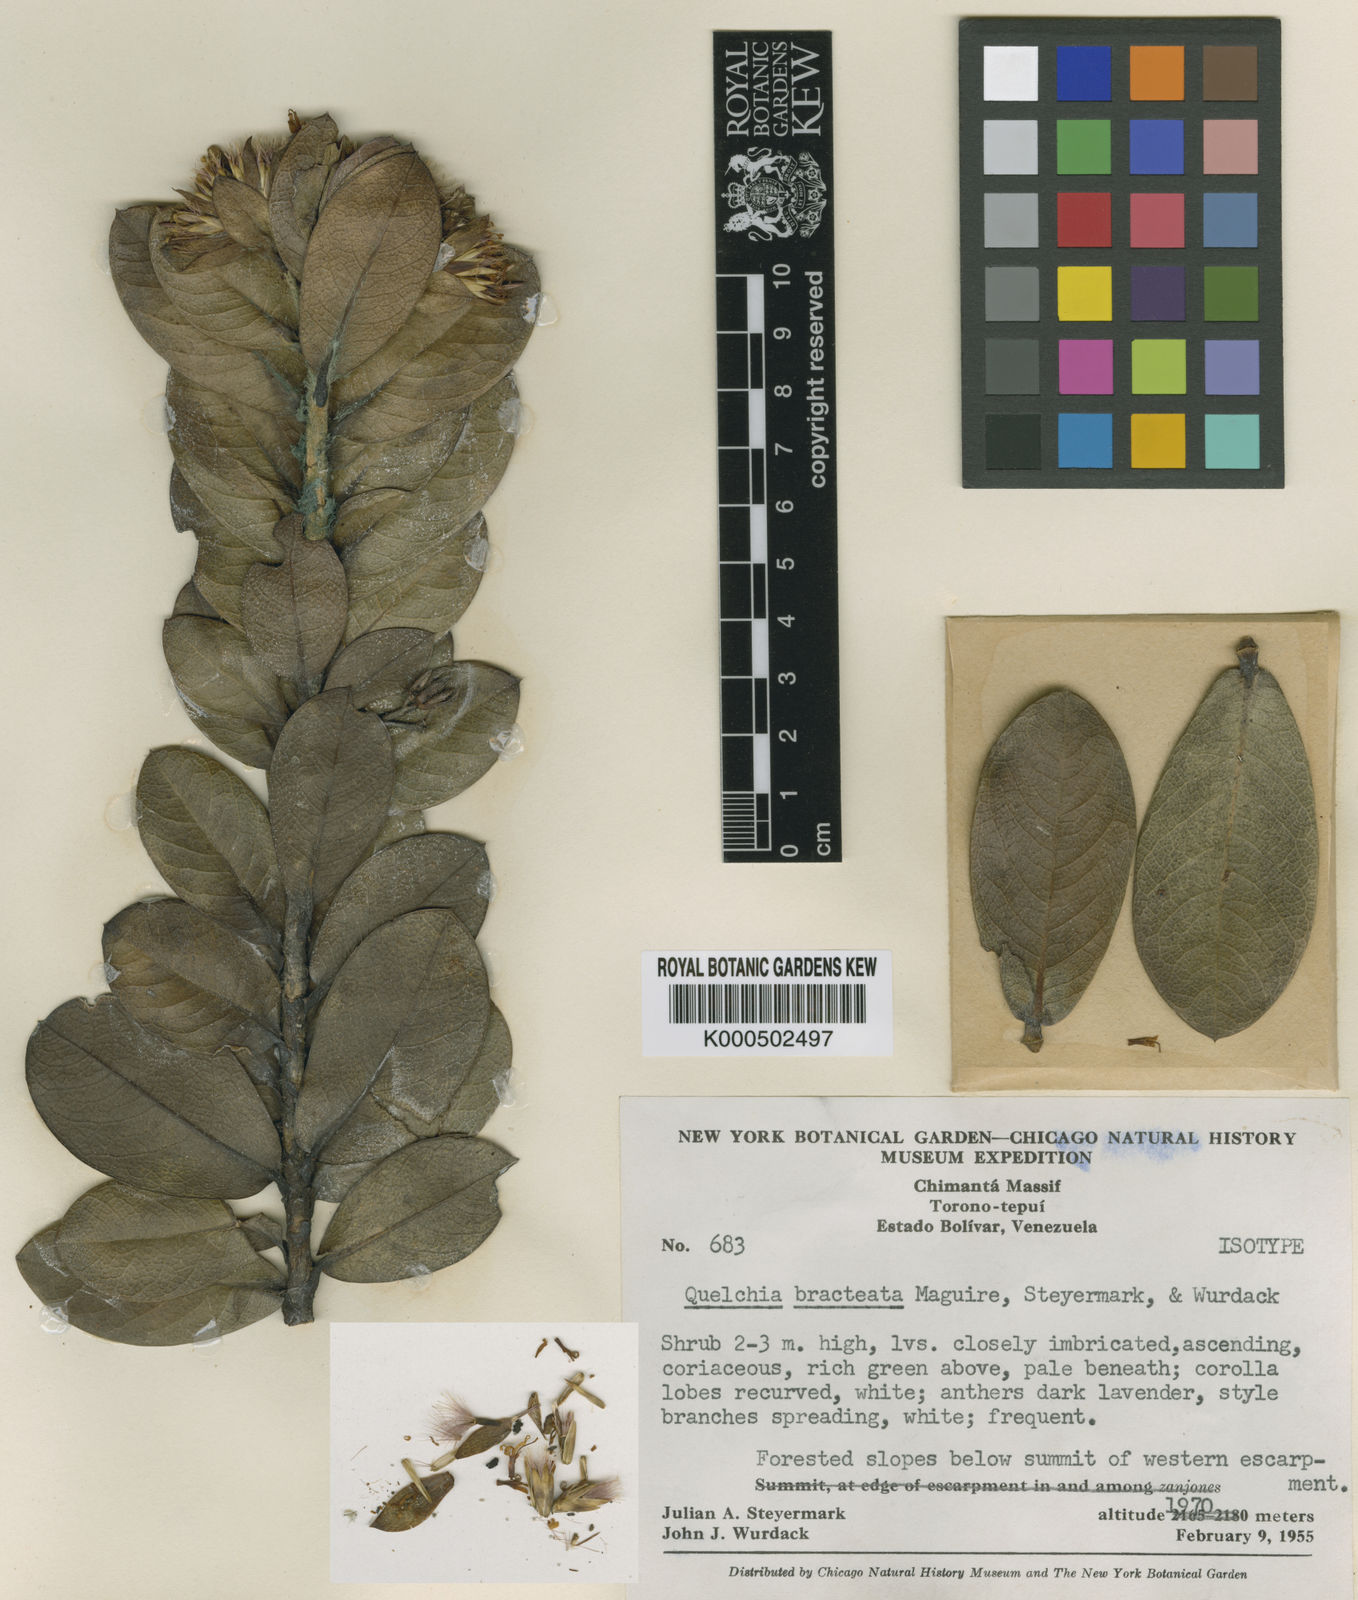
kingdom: Plantae
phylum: Tracheophyta
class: Magnoliopsida
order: Asterales
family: Asteraceae
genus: Quelchia
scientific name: Quelchia bracteata
